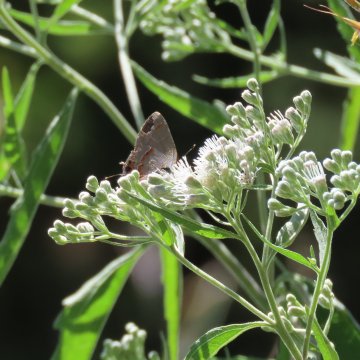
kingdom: Animalia
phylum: Arthropoda
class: Insecta
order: Lepidoptera
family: Lycaenidae
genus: Calycopis
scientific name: Calycopis cecrops
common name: Red-banded Hairstreak
